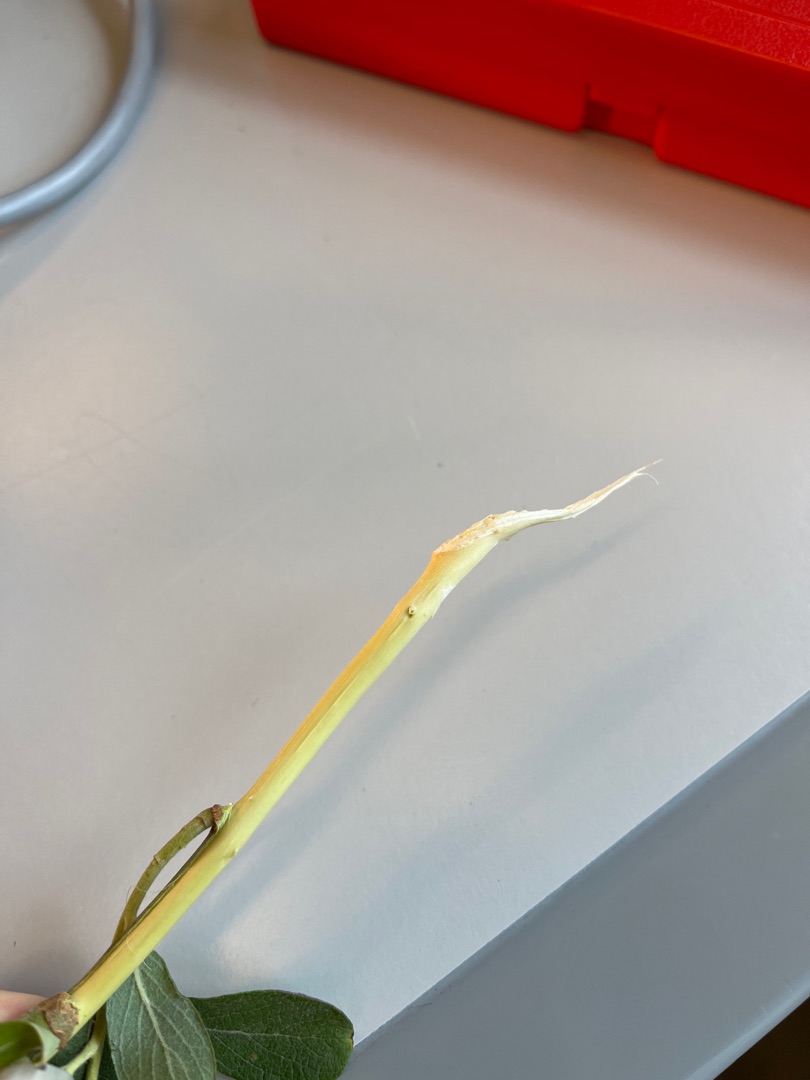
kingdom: Plantae
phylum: Tracheophyta
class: Magnoliopsida
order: Malpighiales
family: Salicaceae
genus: Salix
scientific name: Salix cinerea
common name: Grå-pil
